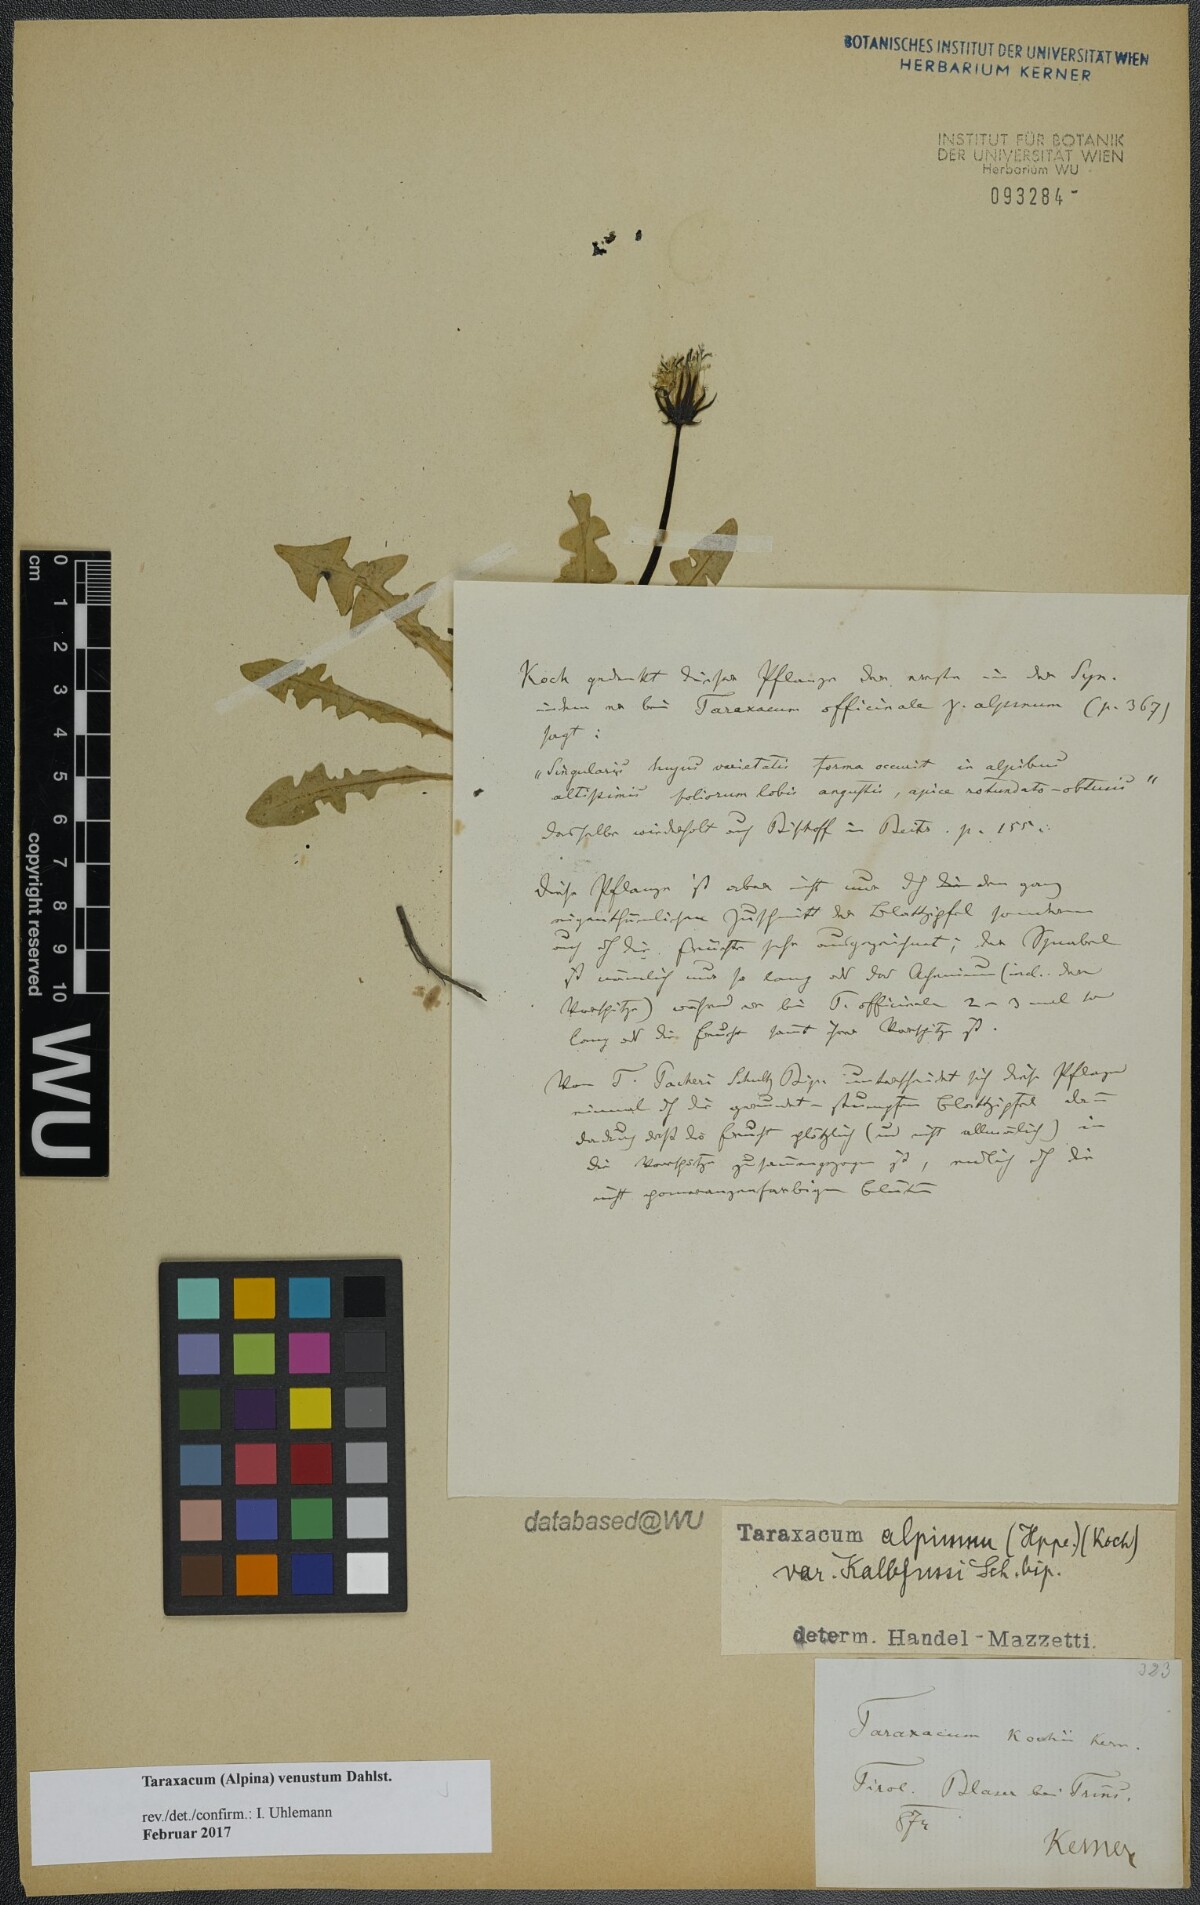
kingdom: Plantae
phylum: Tracheophyta
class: Magnoliopsida
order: Asterales
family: Asteraceae
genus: Taraxacum
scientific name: Taraxacum venustum
